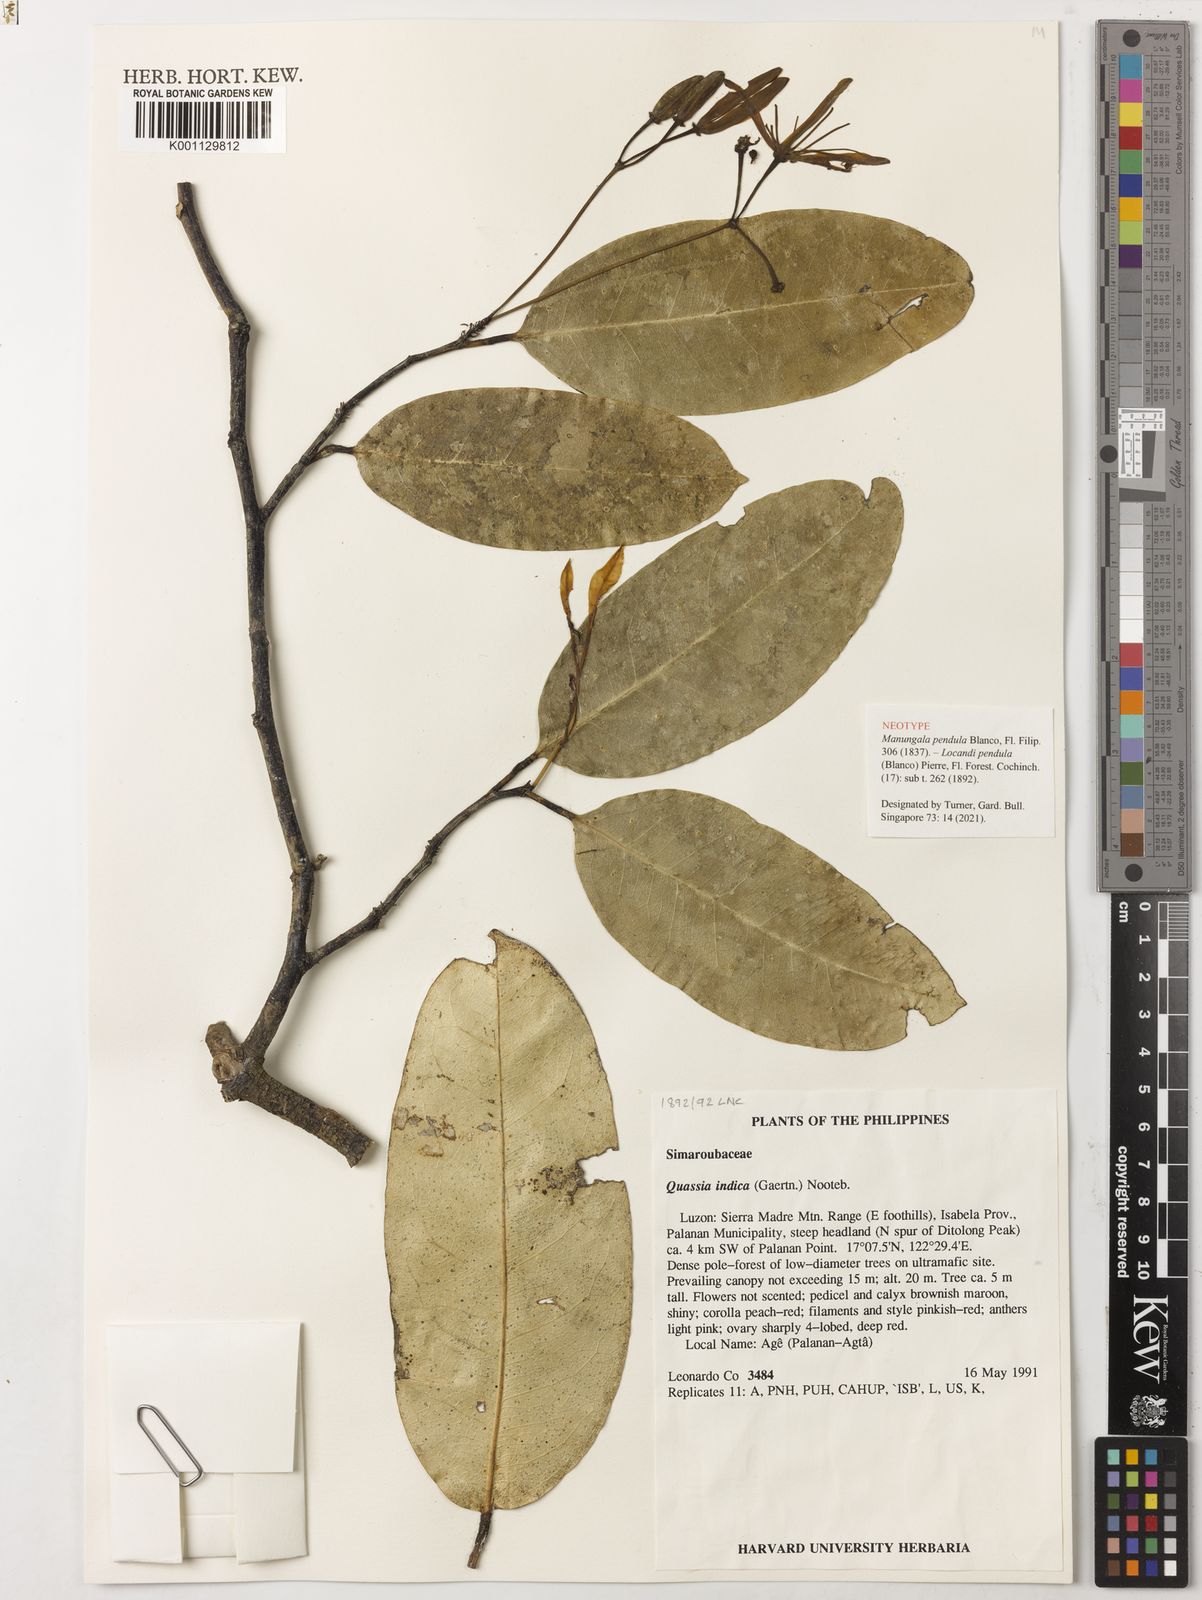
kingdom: Plantae
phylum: Tracheophyta
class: Magnoliopsida
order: Sapindales
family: Simaroubaceae
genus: Samadera
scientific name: Samadera indica
